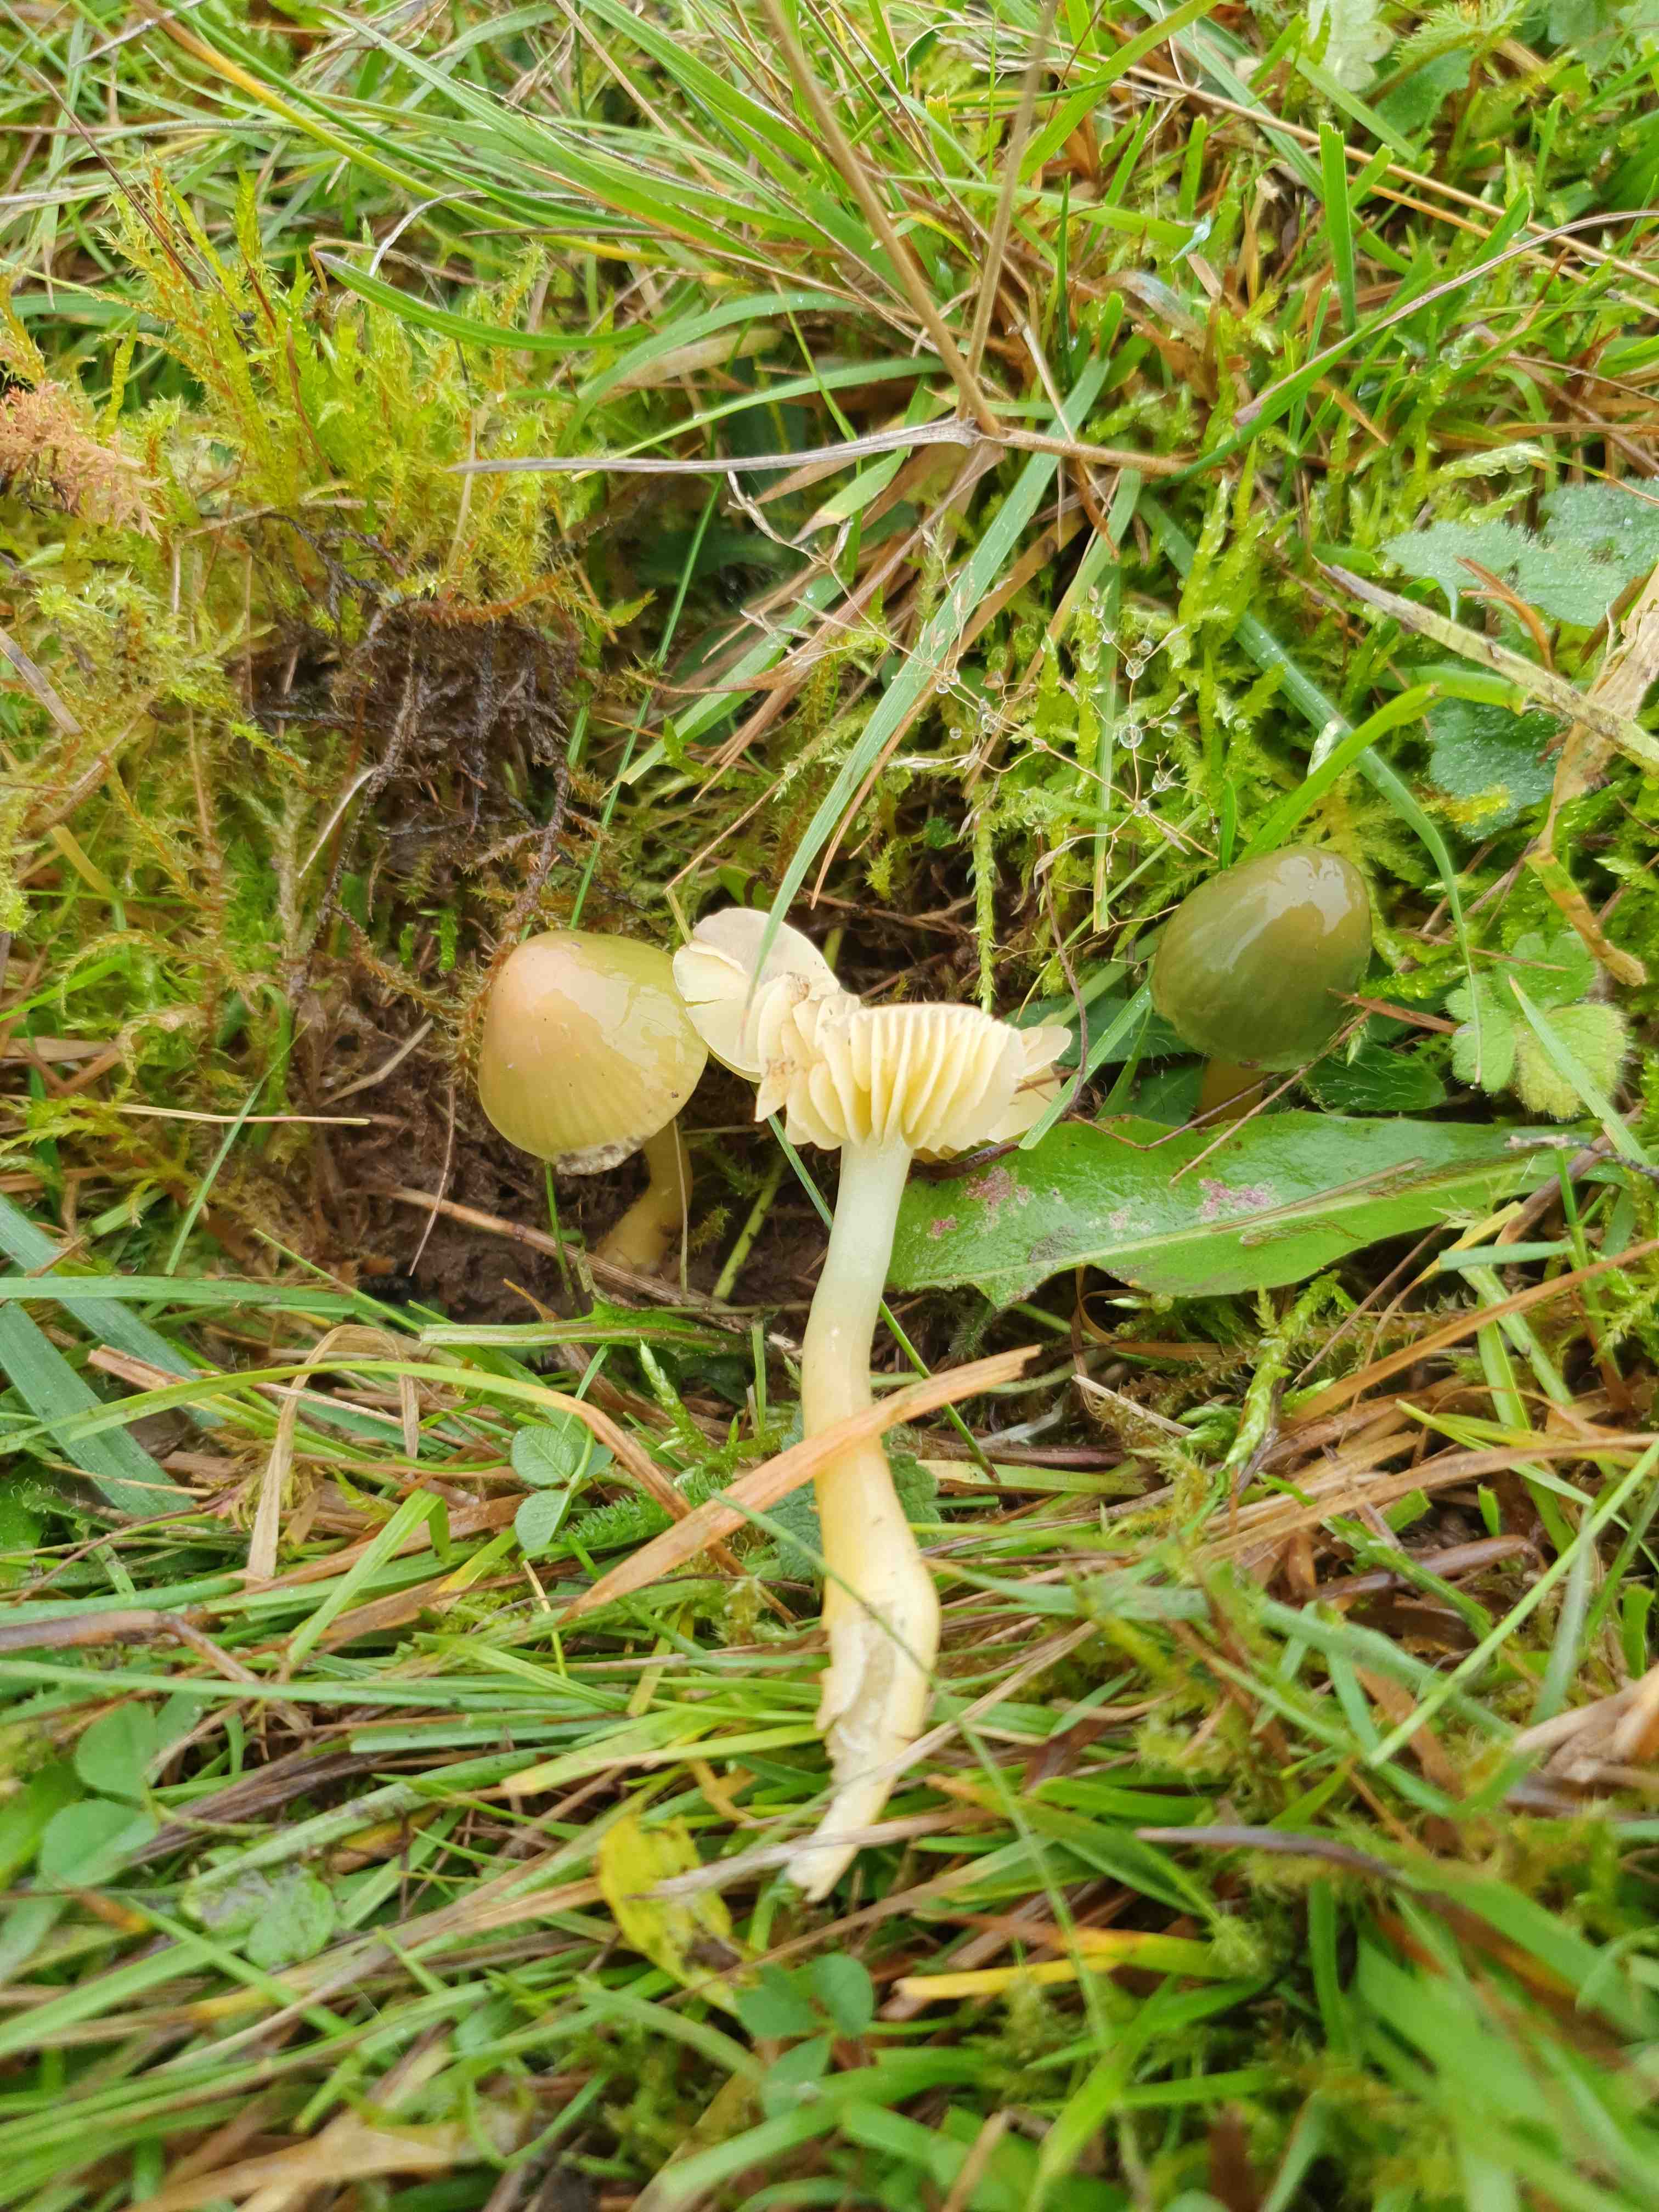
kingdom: Fungi
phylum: Basidiomycota
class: Agaricomycetes
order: Agaricales
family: Hygrophoraceae
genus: Gliophorus
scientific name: Gliophorus psittacinus
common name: papegøje-vokshat
